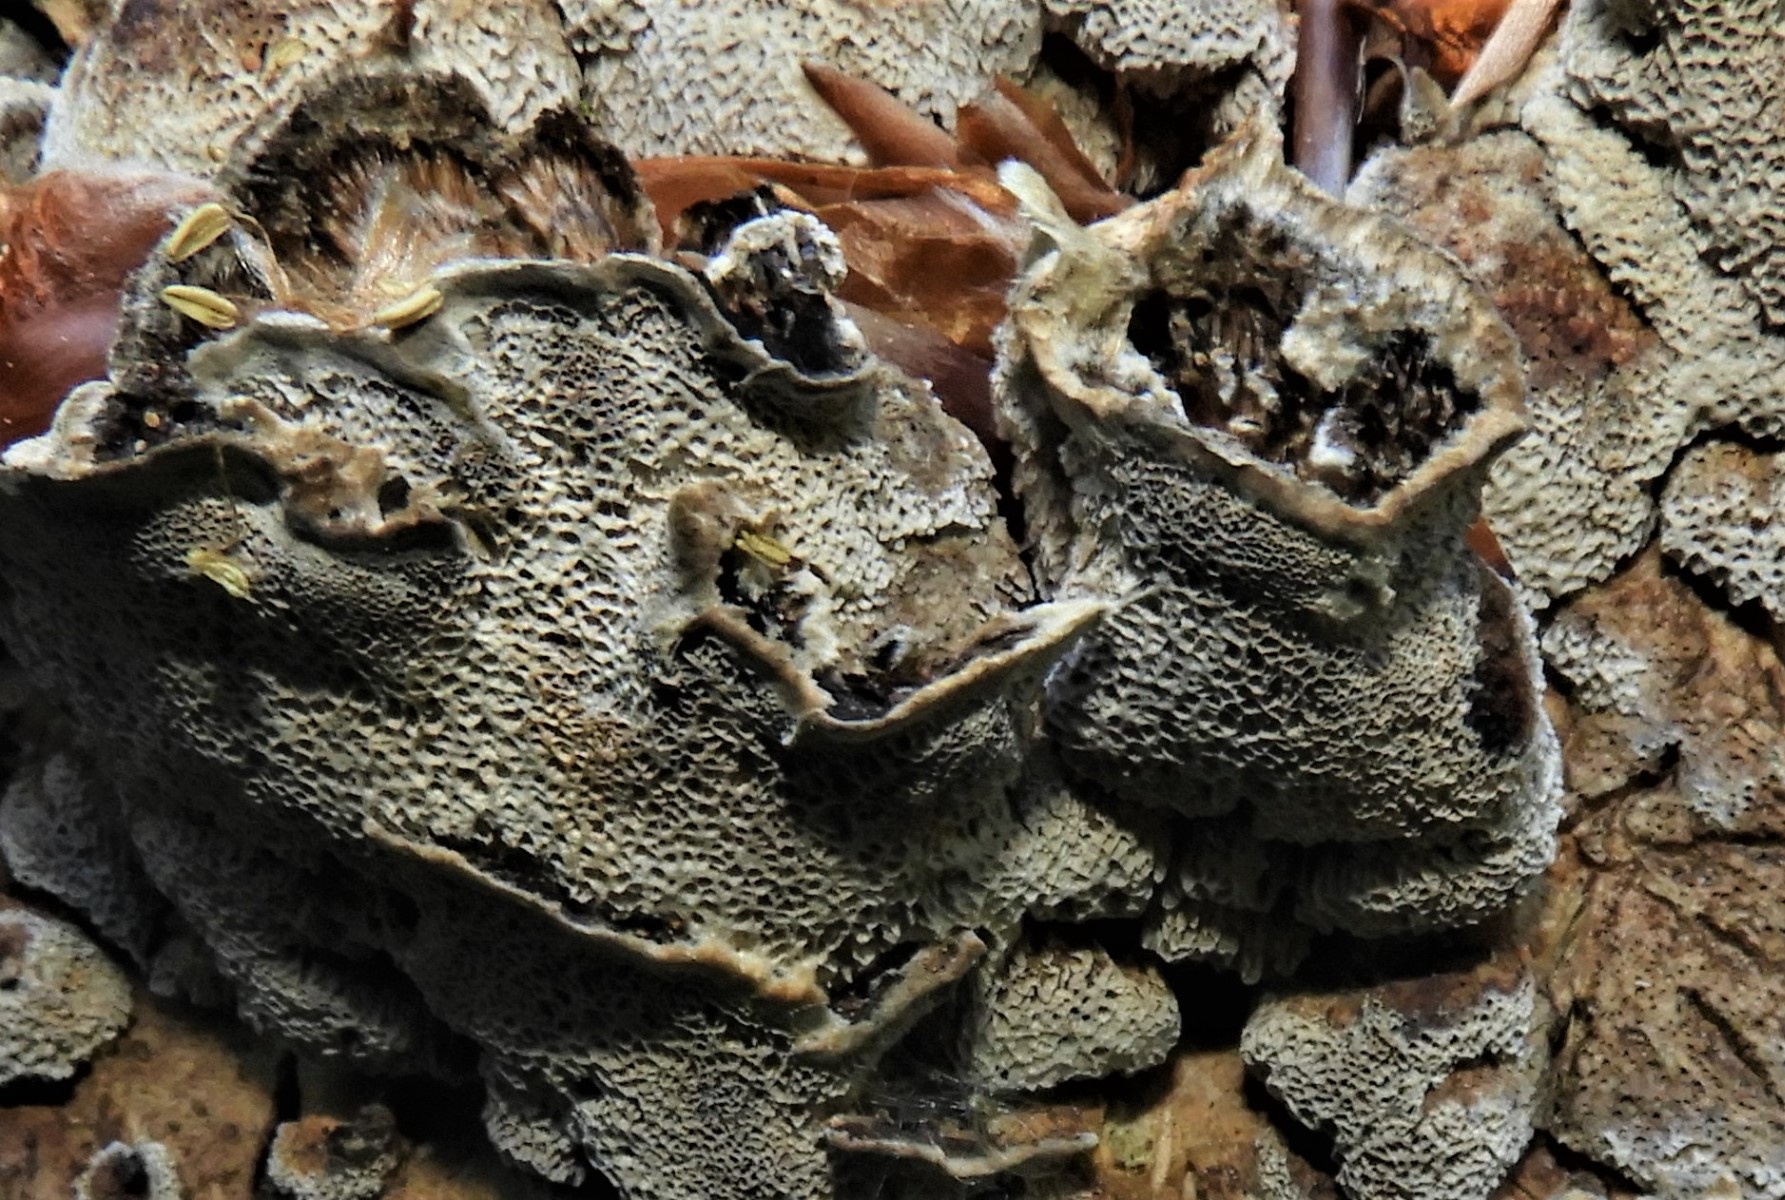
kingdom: Fungi
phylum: Basidiomycota
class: Agaricomycetes
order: Polyporales
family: Phanerochaetaceae
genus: Bjerkandera
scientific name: Bjerkandera adusta
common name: sveden sodporesvamp
